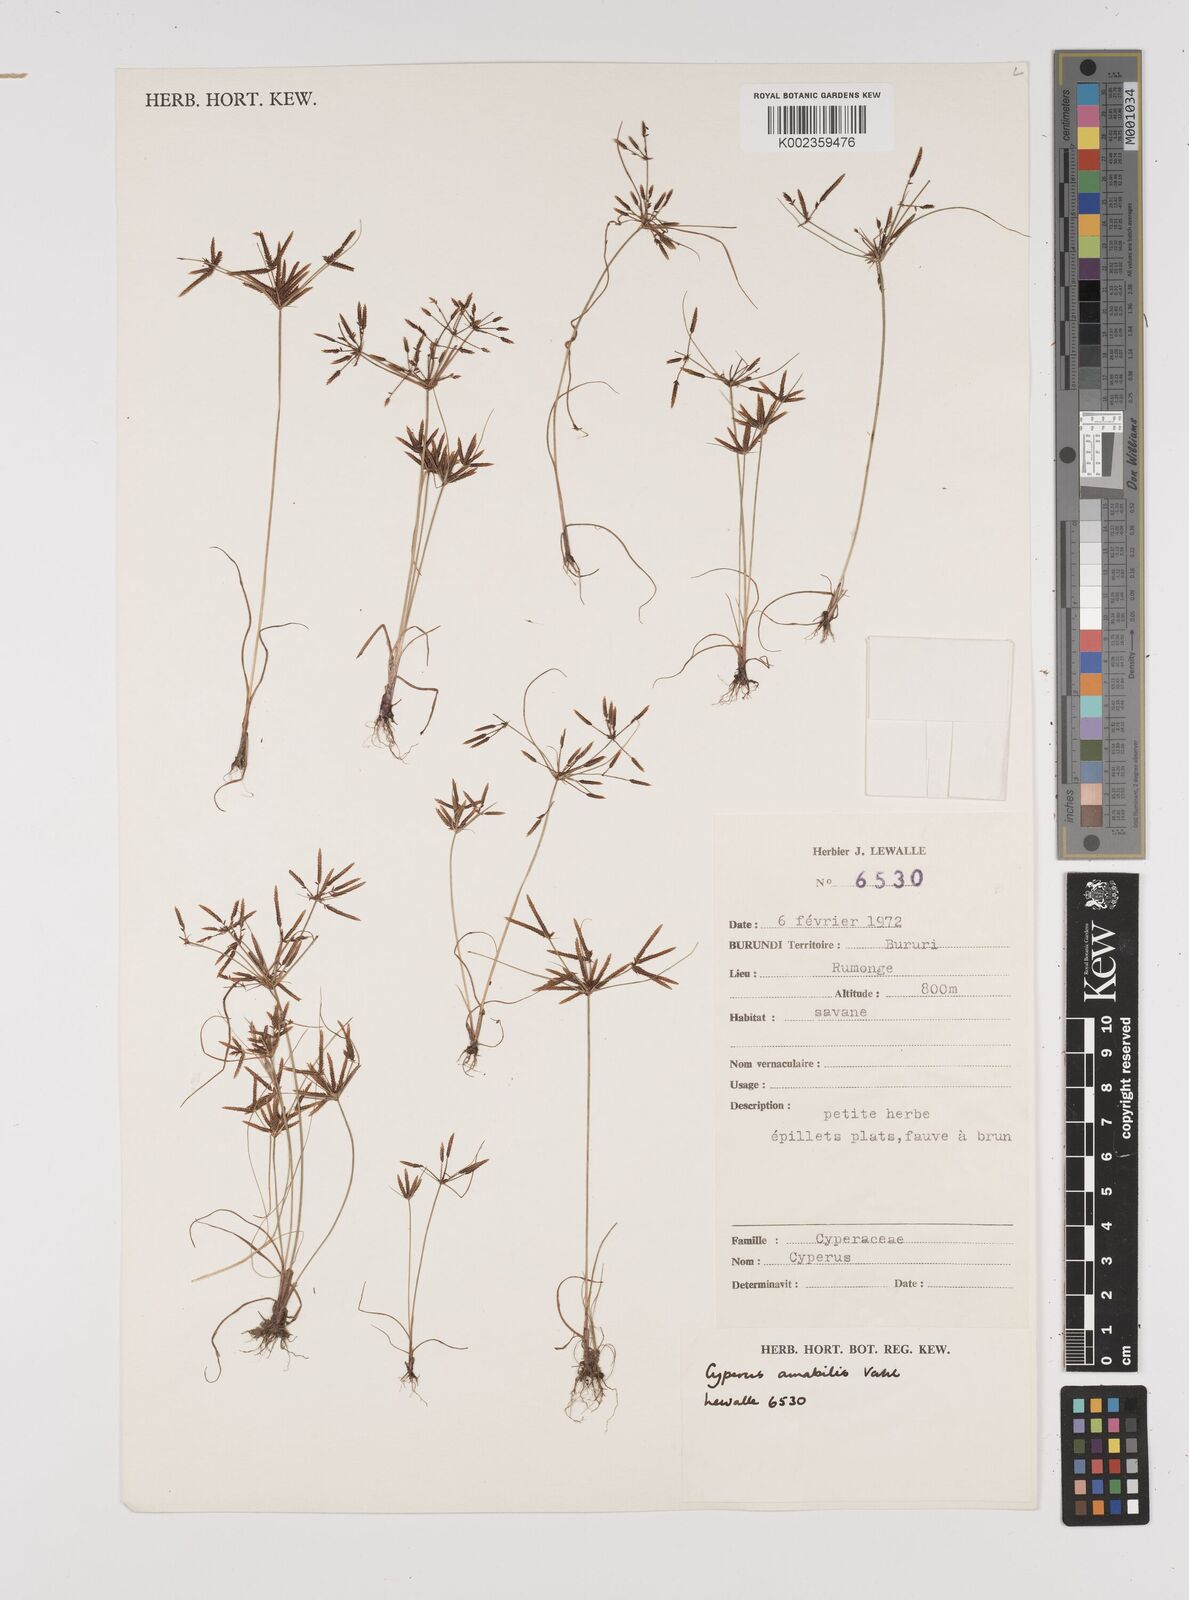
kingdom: Plantae
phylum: Tracheophyta
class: Liliopsida
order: Poales
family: Cyperaceae
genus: Cyperus
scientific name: Cyperus amabilis
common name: Foothill flat sedge
